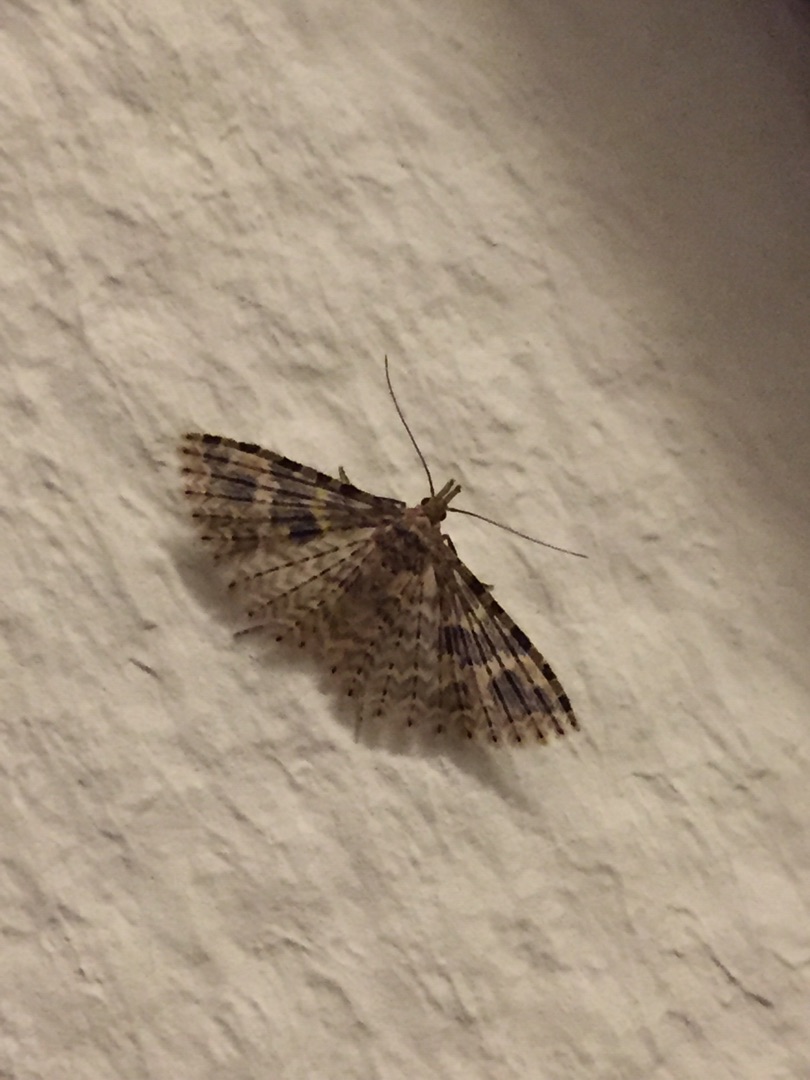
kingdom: Animalia
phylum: Arthropoda
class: Insecta
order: Lepidoptera
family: Alucitidae
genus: Alucita
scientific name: Alucita hexadactyla
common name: Kaprifoliefjermøl
